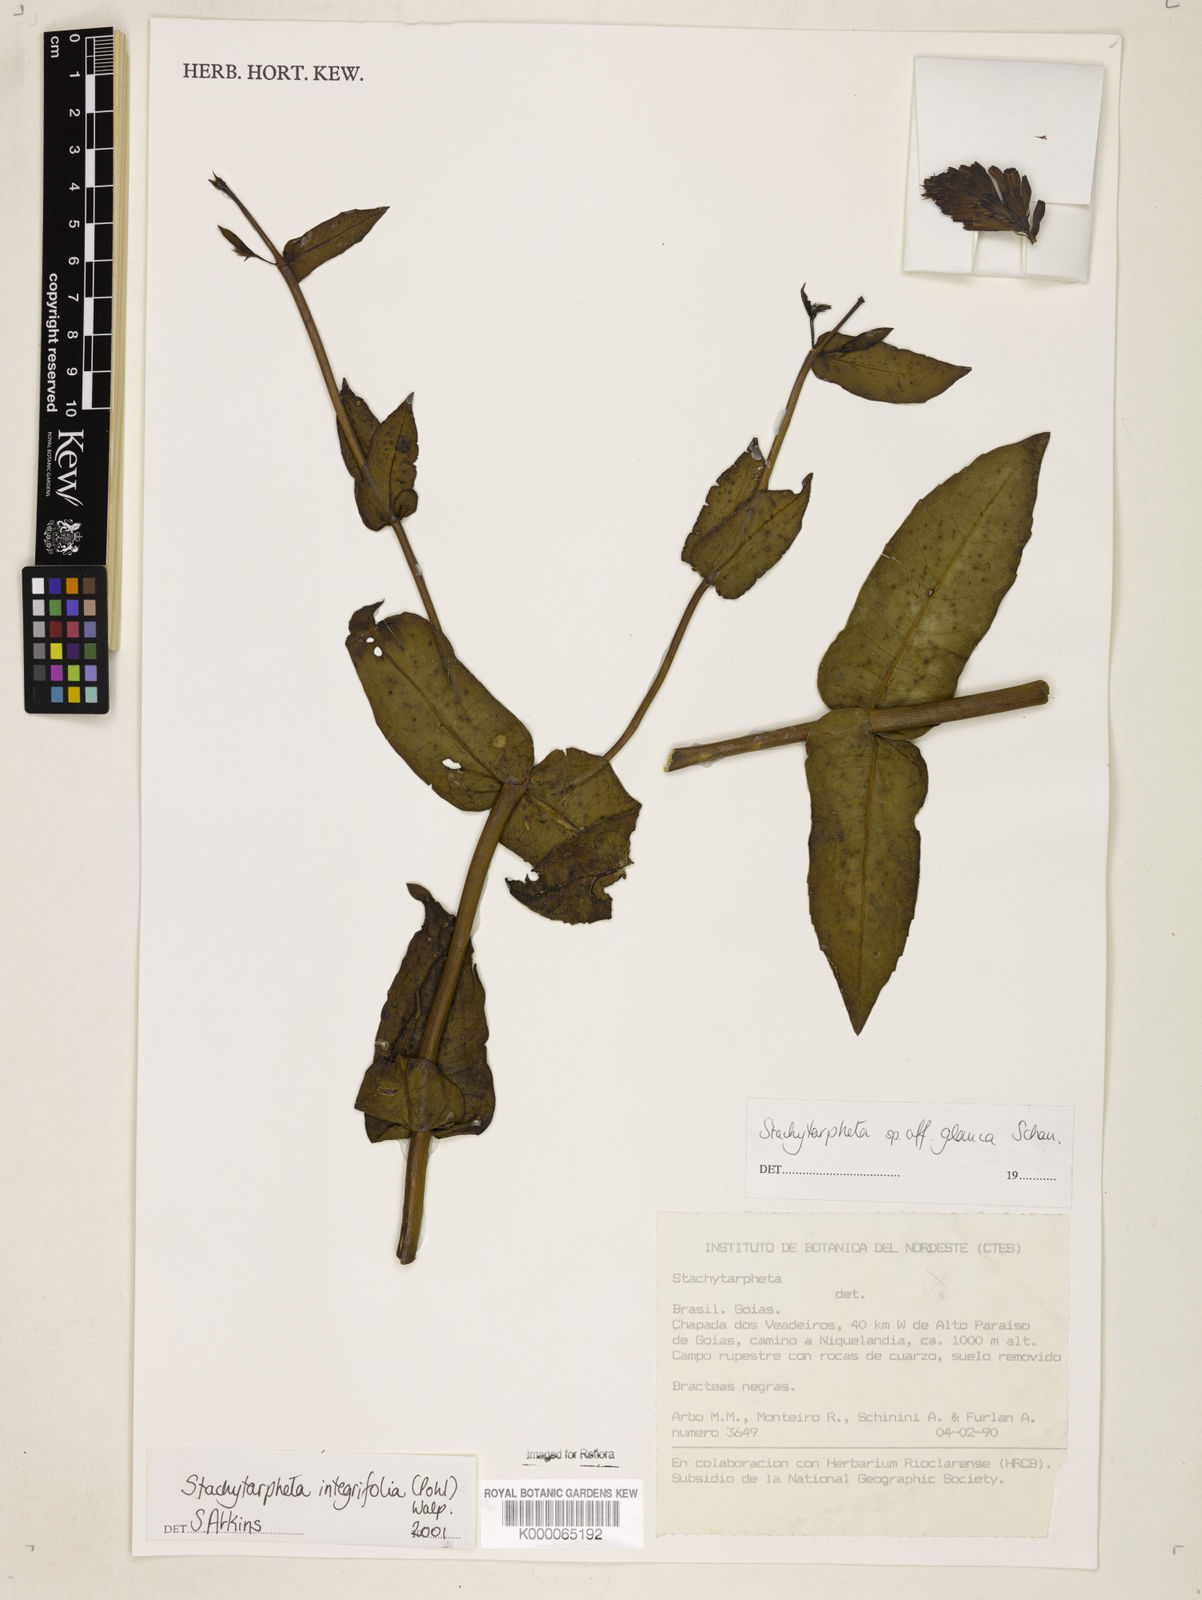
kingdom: Plantae
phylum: Tracheophyta
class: Magnoliopsida
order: Lamiales
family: Verbenaceae
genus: Stachytarpheta
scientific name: Stachytarpheta integrifolia
